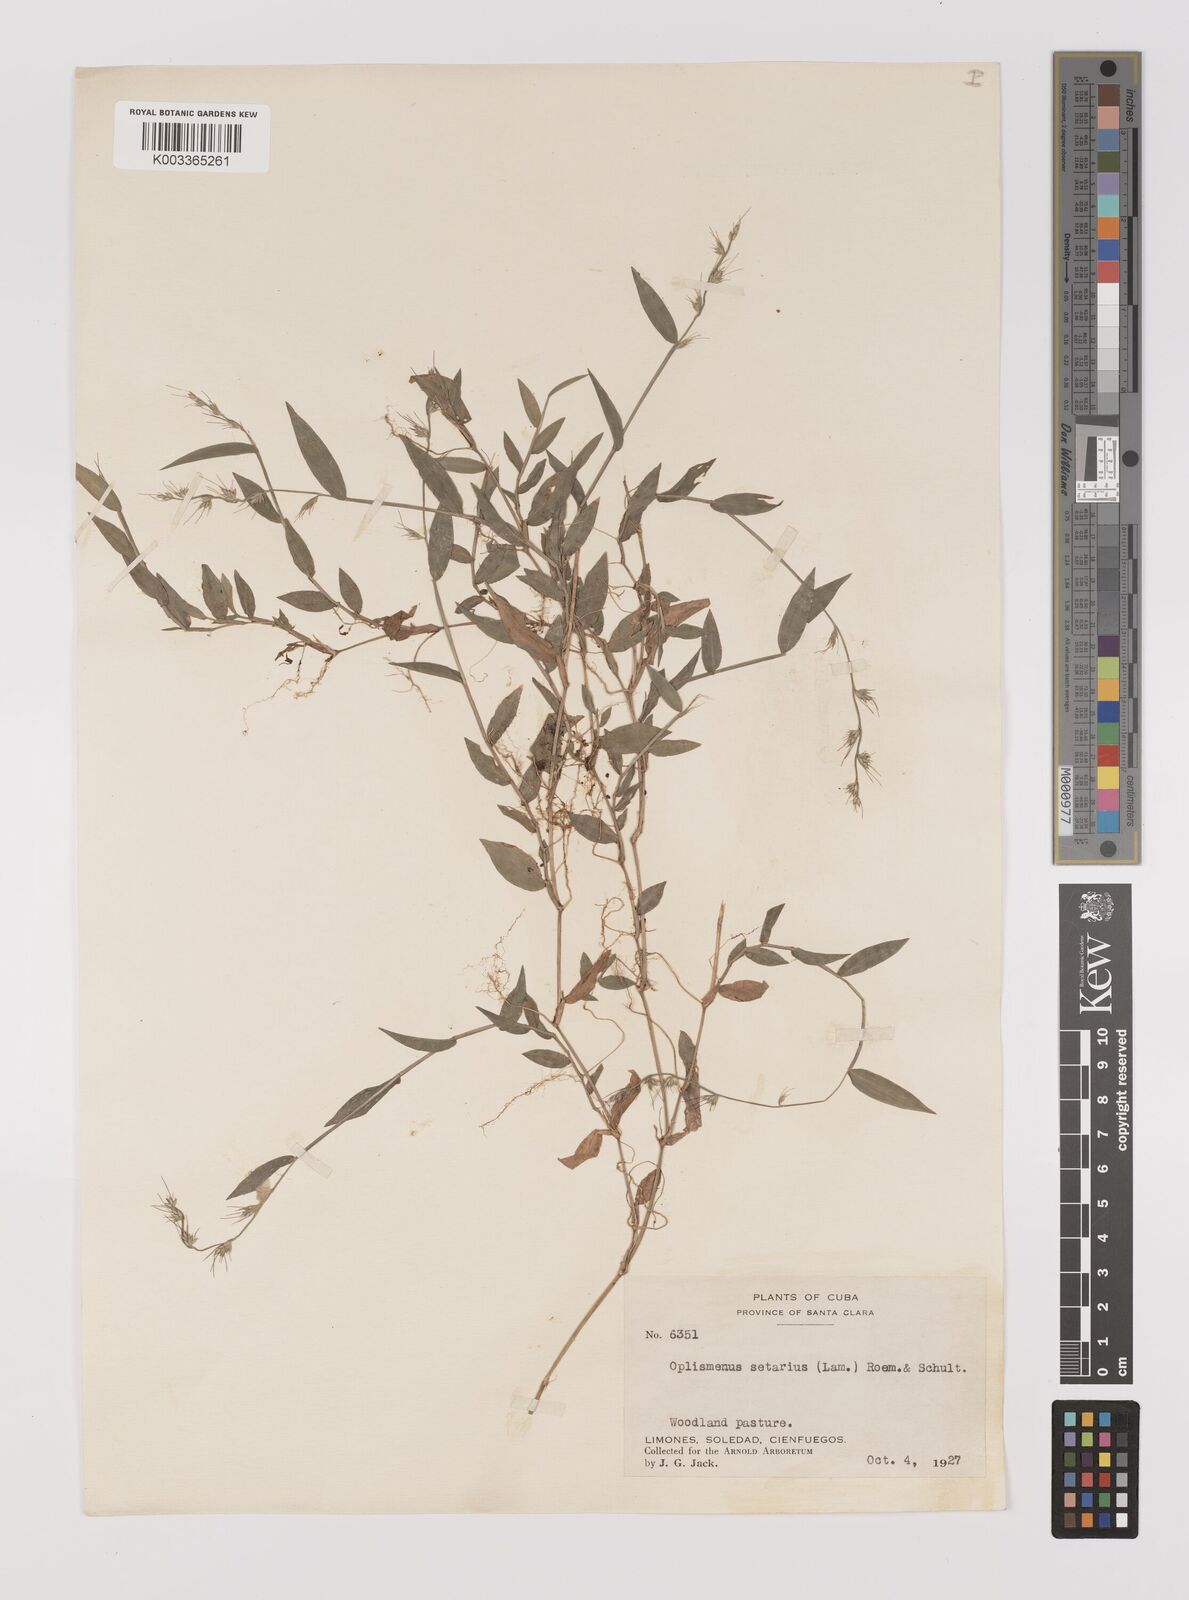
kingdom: Plantae
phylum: Tracheophyta
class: Liliopsida
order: Poales
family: Poaceae
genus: Oplismenus
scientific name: Oplismenus undulatifolius
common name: Wavyleaf basketgrass
